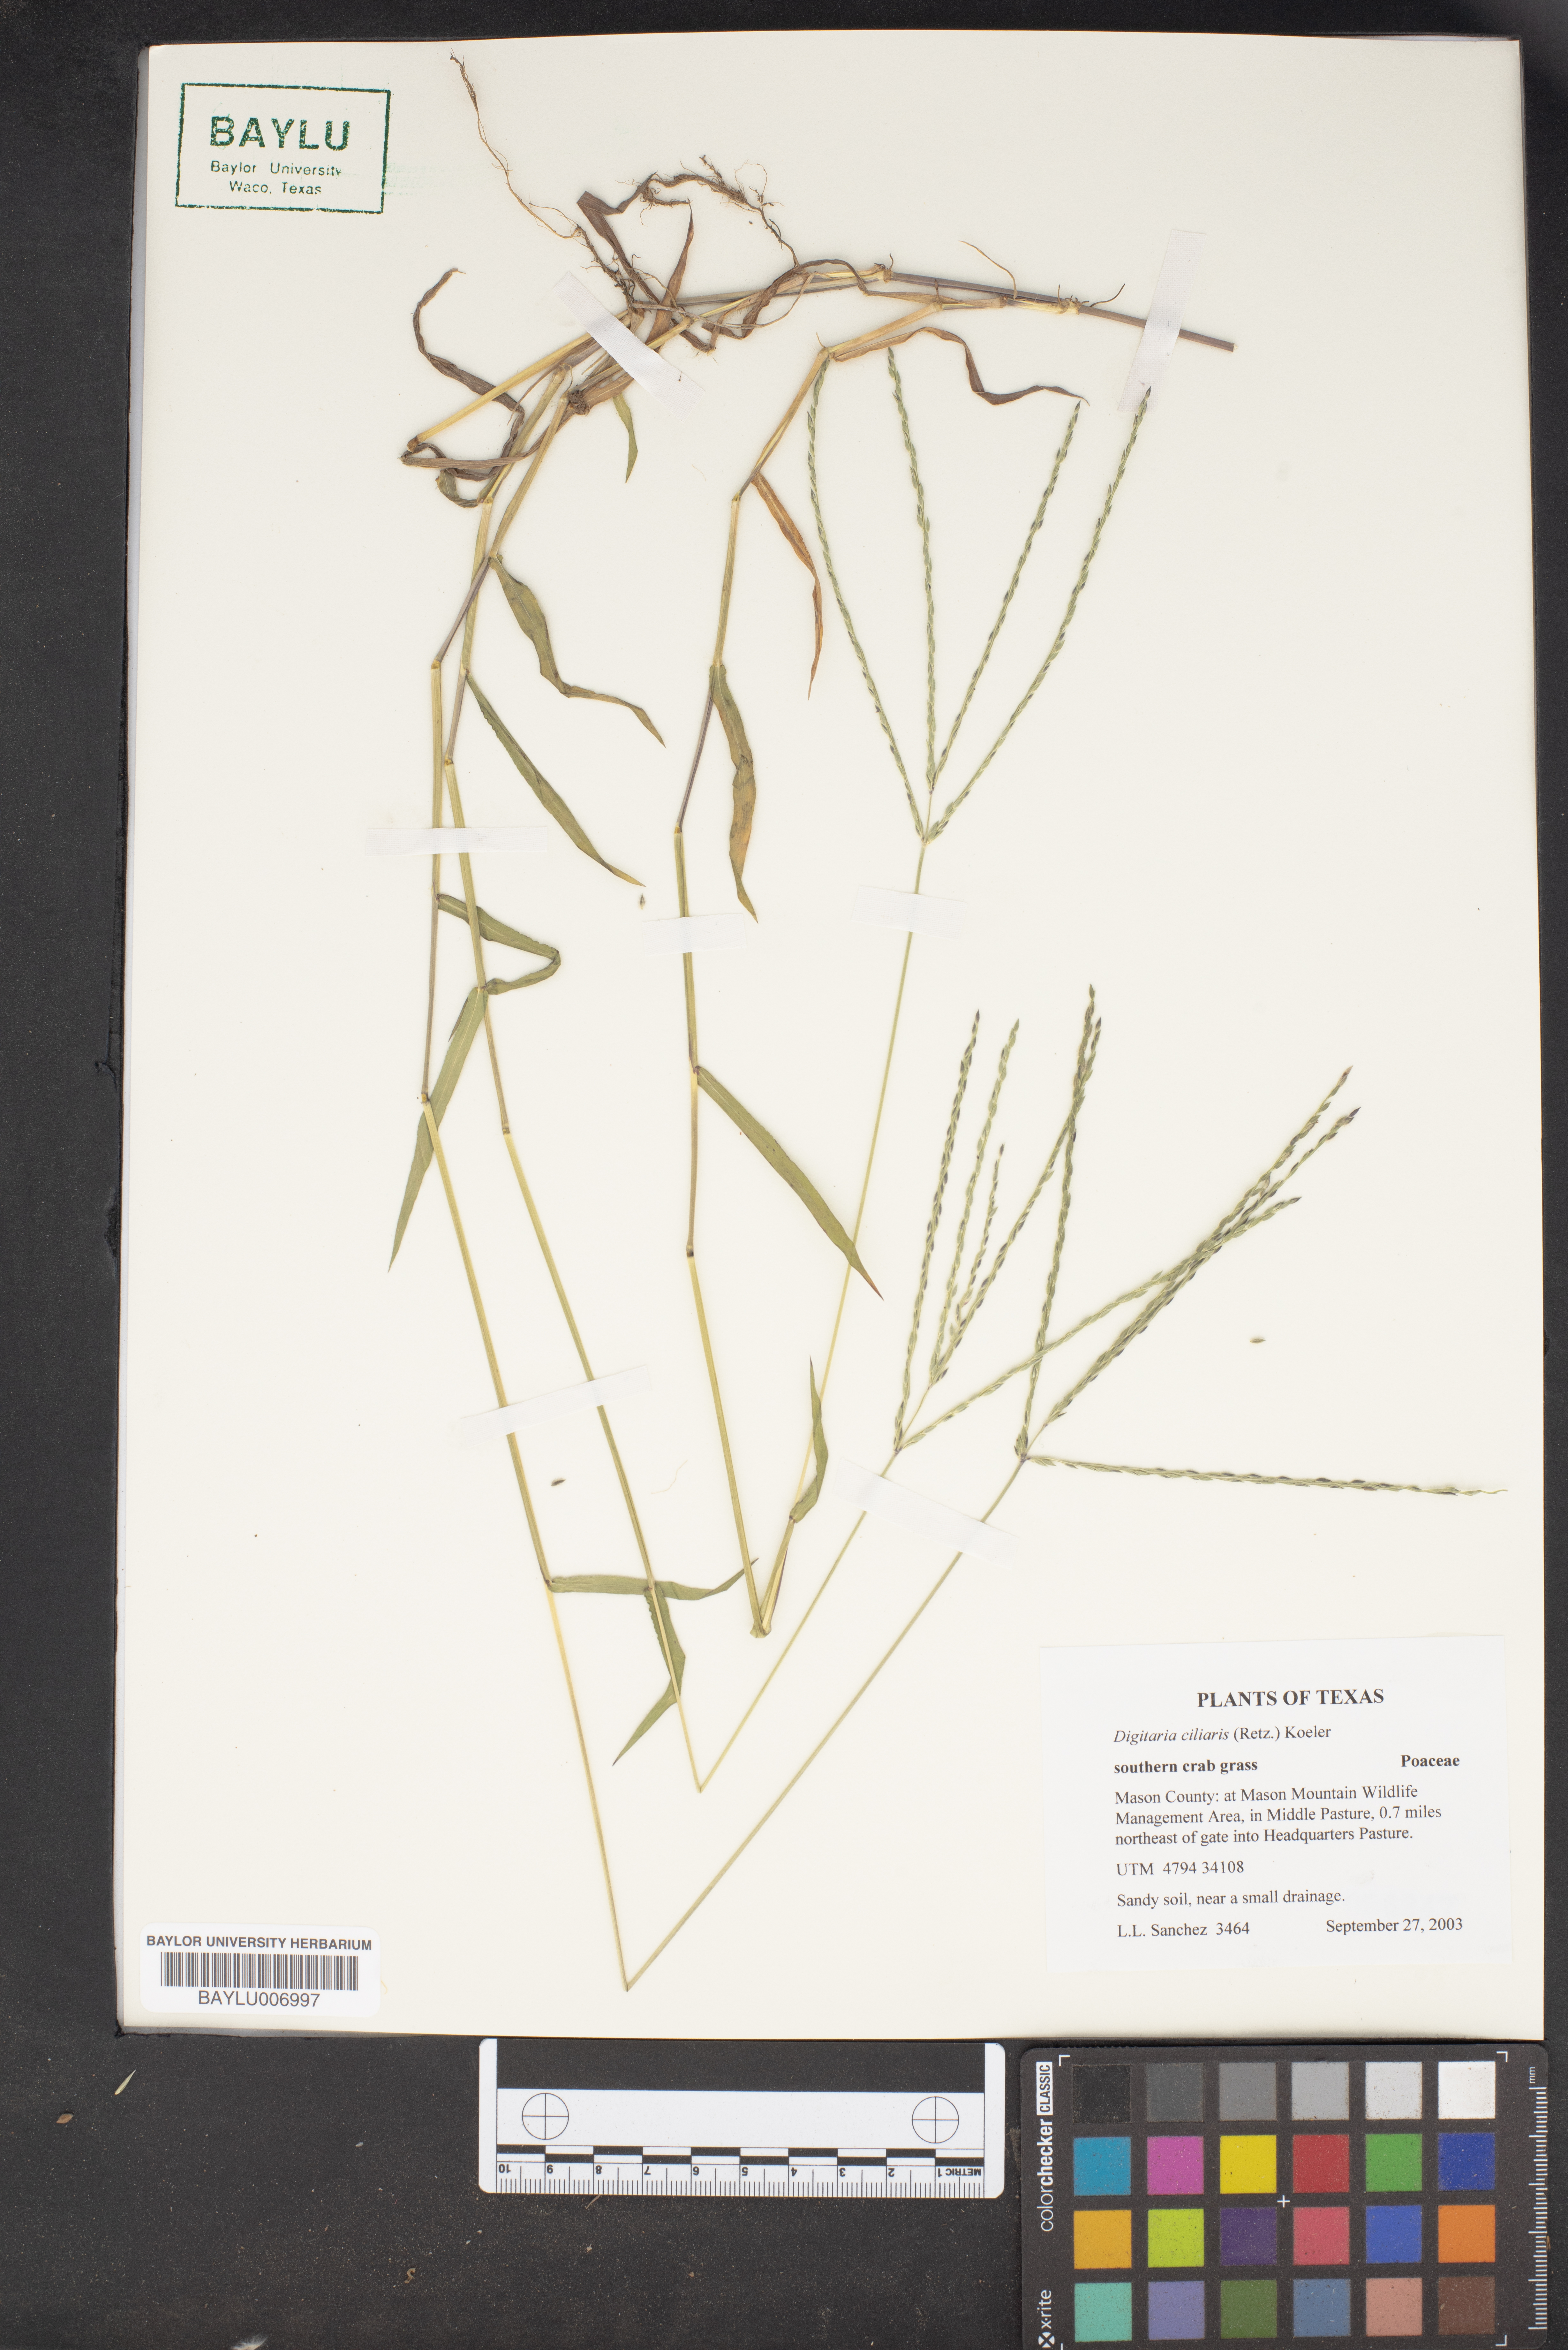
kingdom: Plantae
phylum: Tracheophyta
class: Liliopsida
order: Poales
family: Poaceae
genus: Digitaria
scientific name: Digitaria ciliaris
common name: Tropical finger-grass
